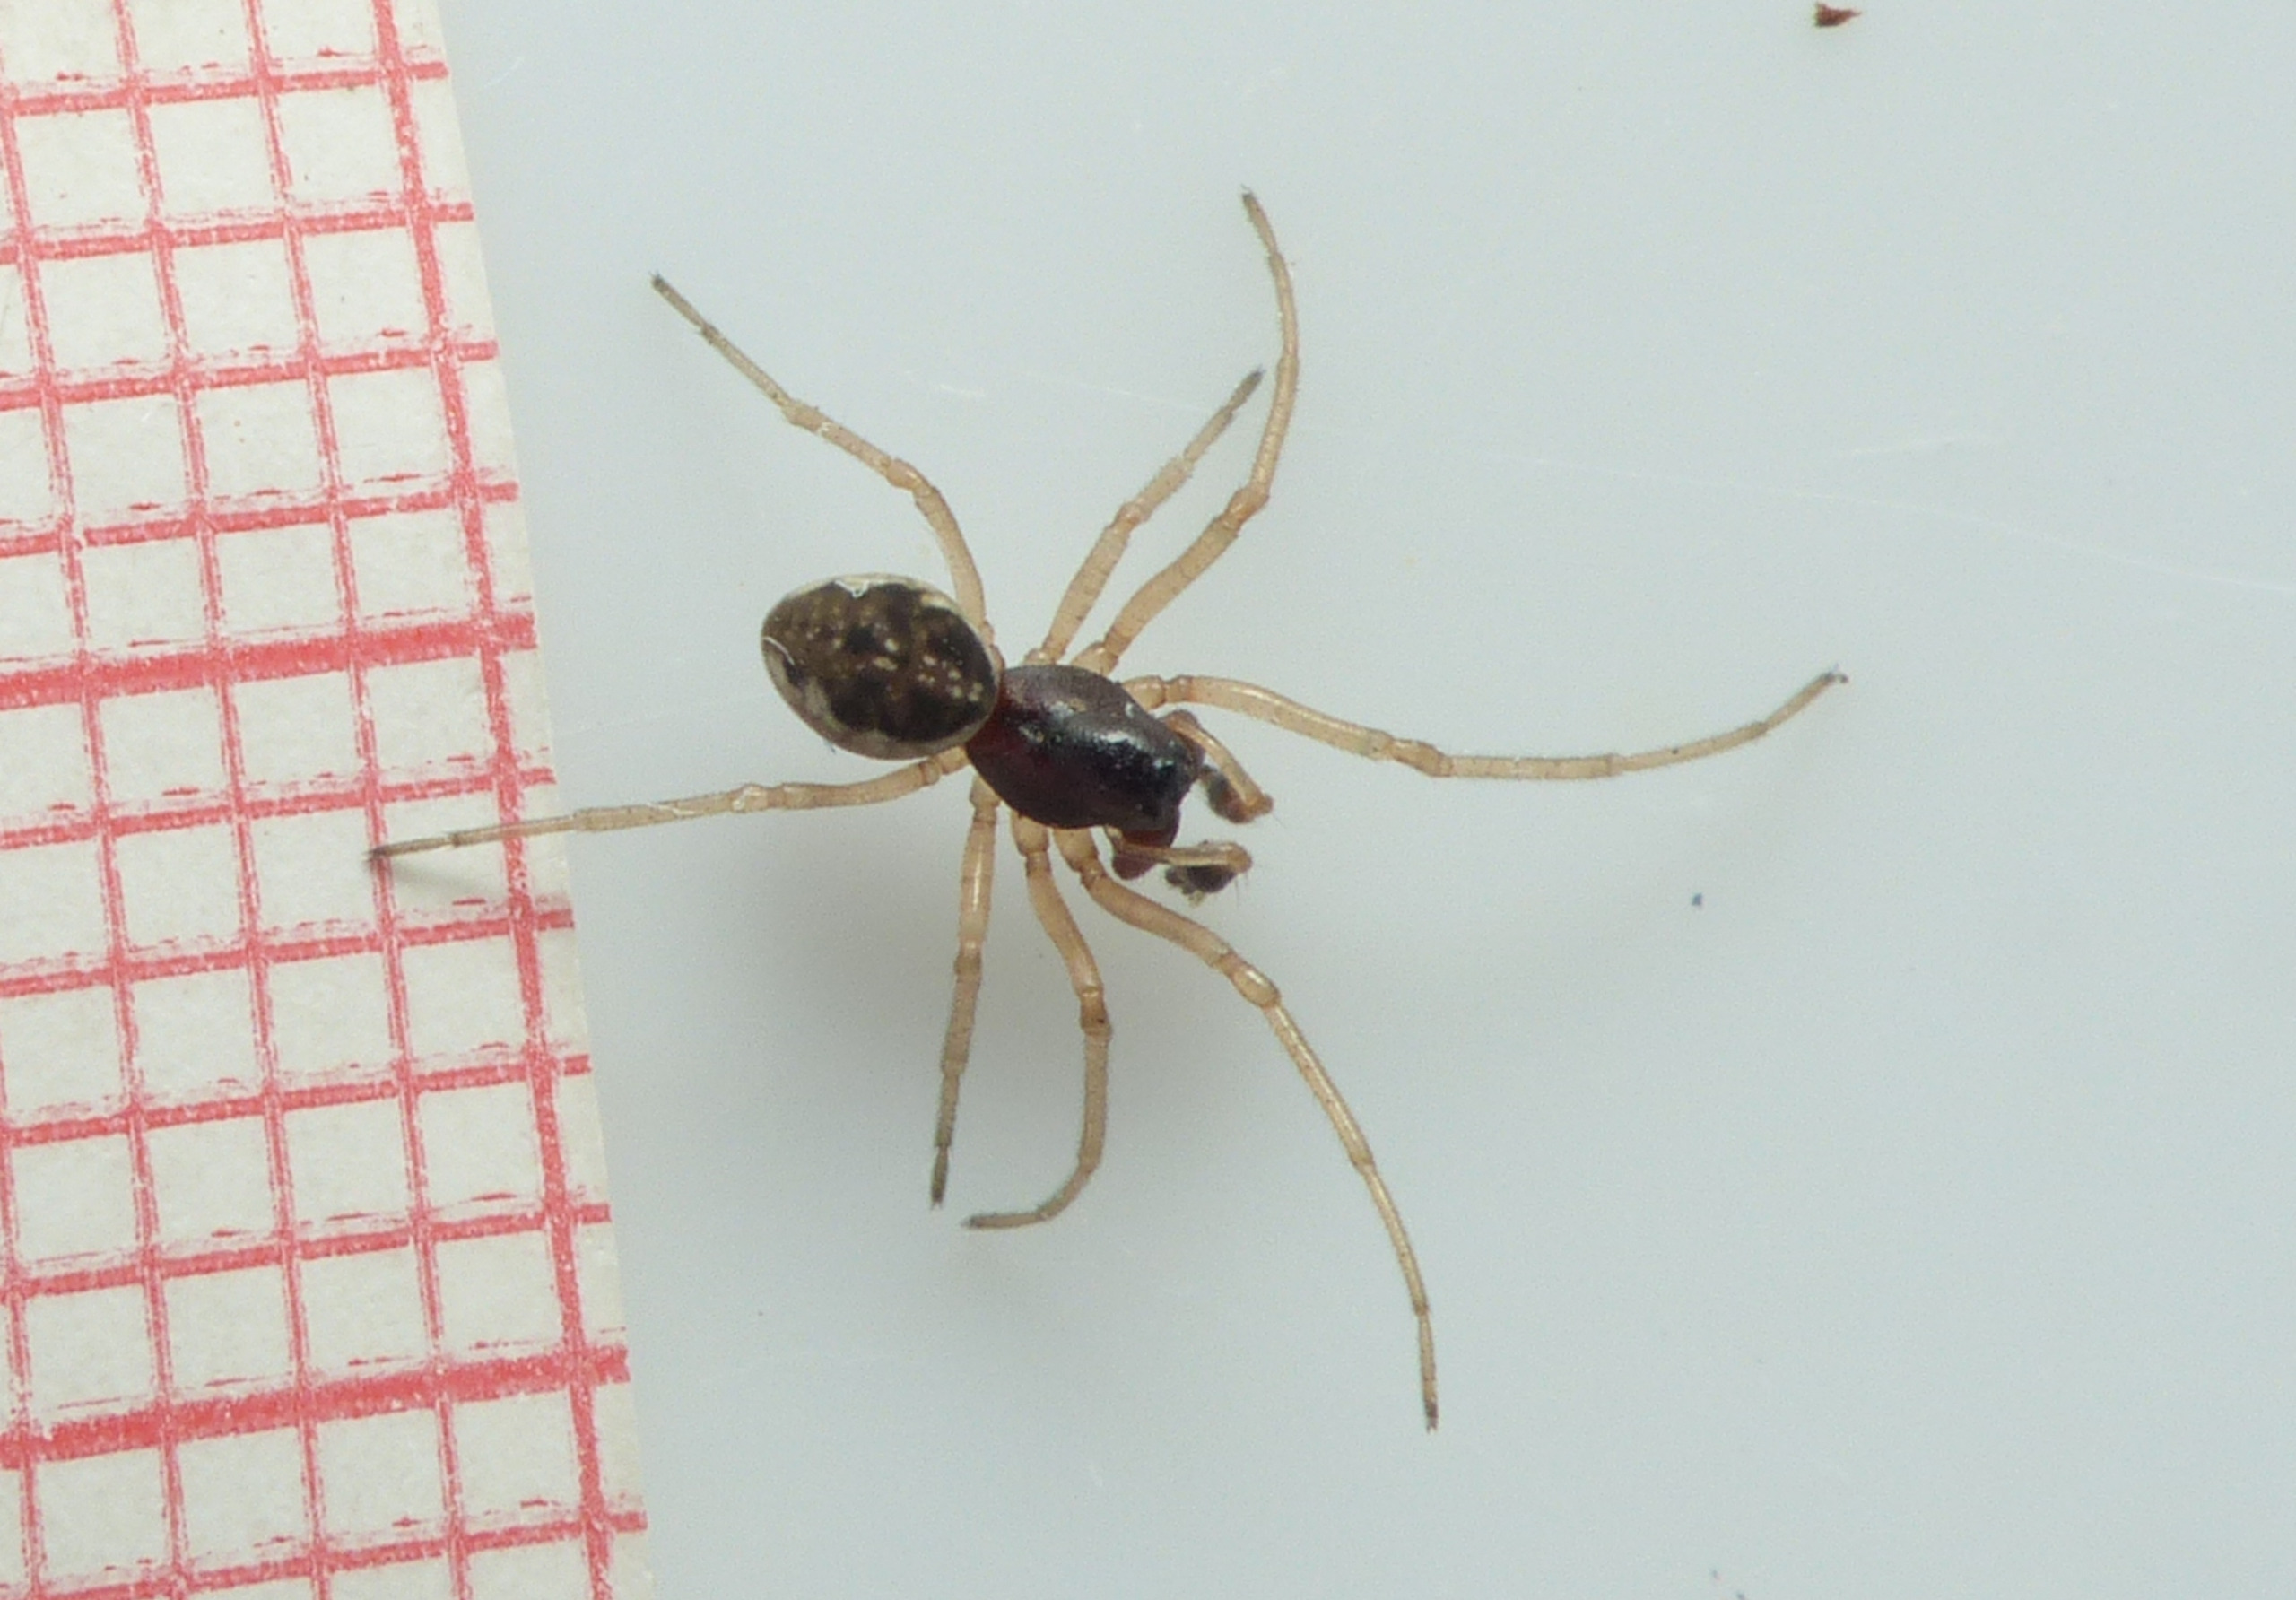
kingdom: Animalia
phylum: Arthropoda
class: Arachnida
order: Araneae
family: Tetragnathidae
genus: Pachygnatha
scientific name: Pachygnatha degeeri
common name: Marktykkæbe
